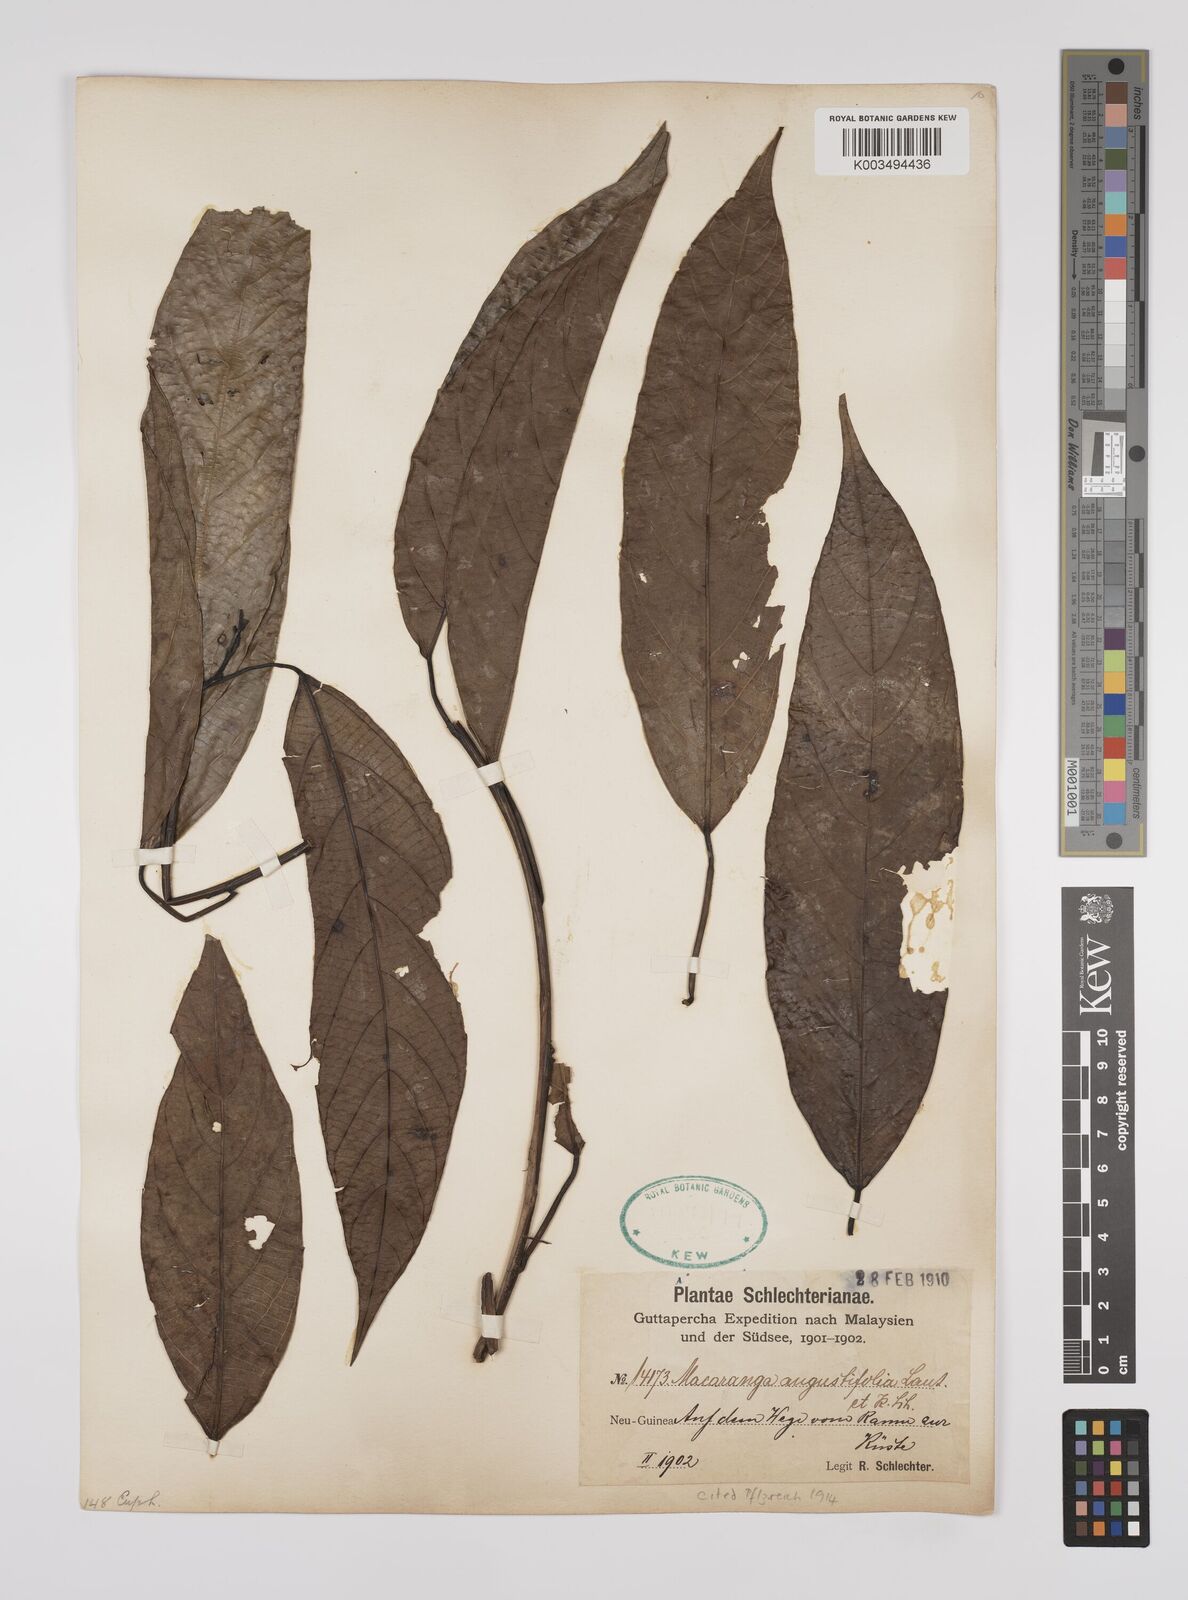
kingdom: Plantae
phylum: Tracheophyta
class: Magnoliopsida
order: Malpighiales
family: Euphorbiaceae
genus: Macaranga
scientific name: Macaranga angustifolia
